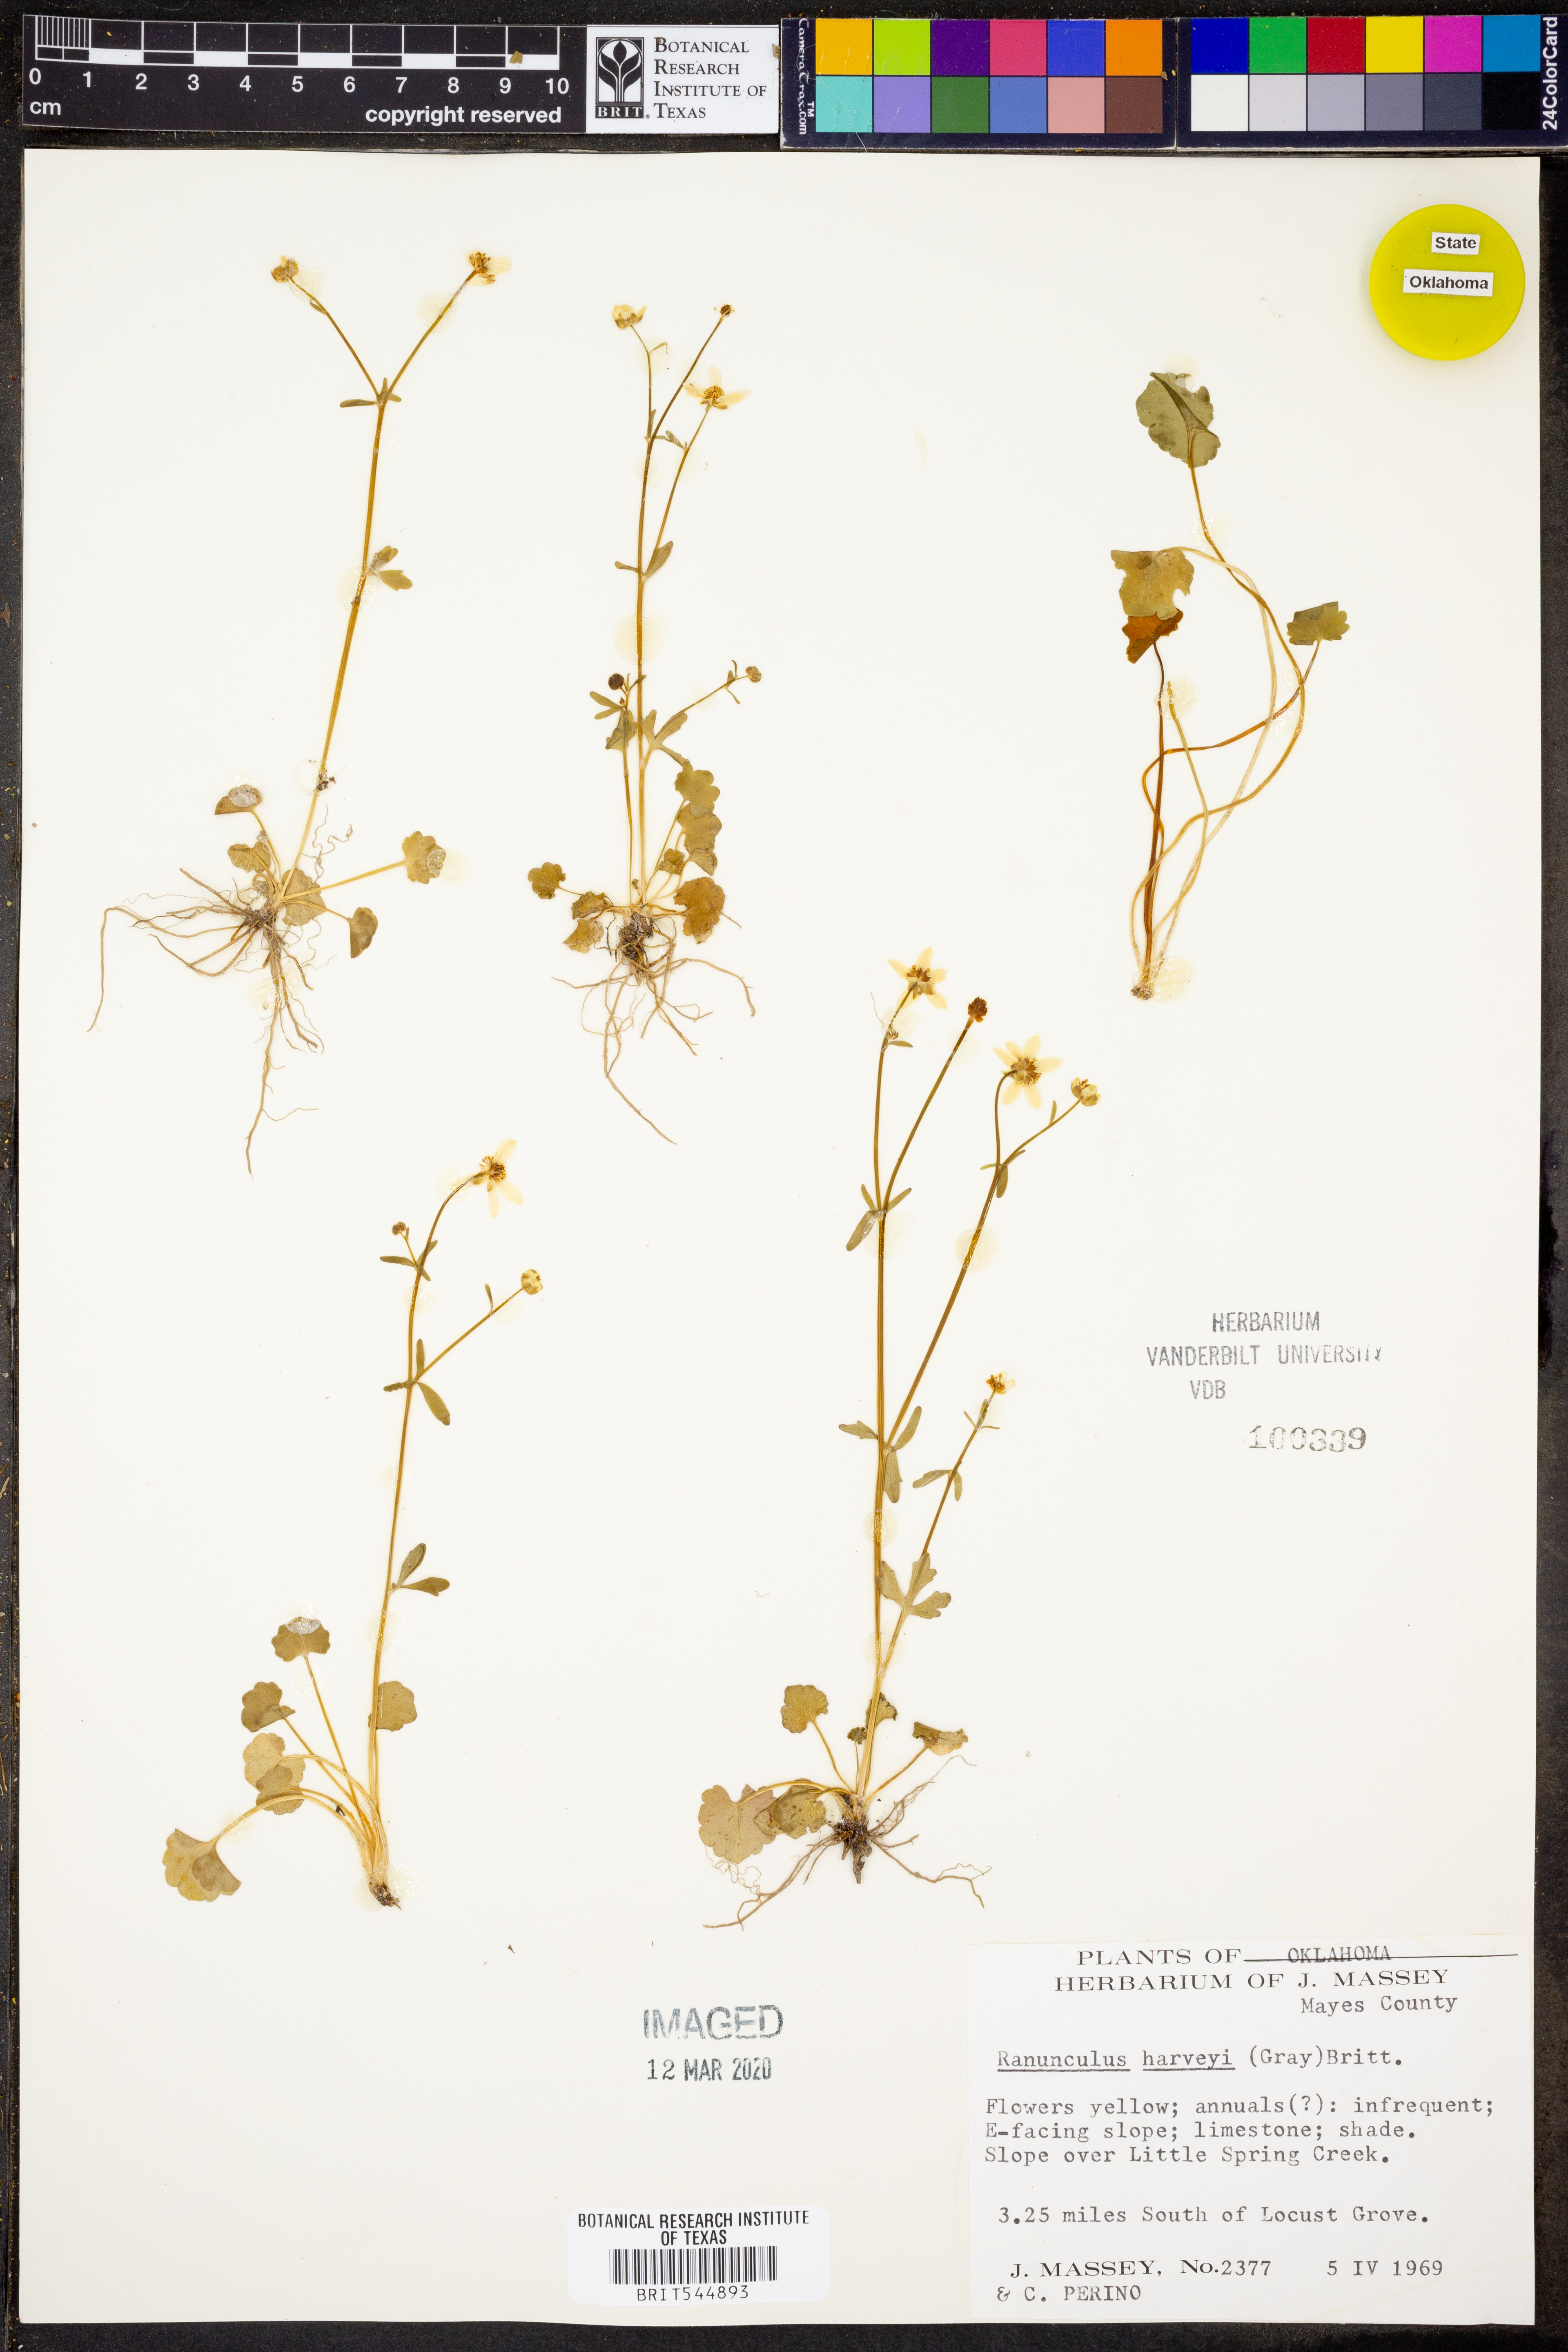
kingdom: Plantae
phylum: Tracheophyta
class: Magnoliopsida
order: Ranunculales
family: Ranunculaceae
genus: Ranunculus
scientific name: Ranunculus harveyi
